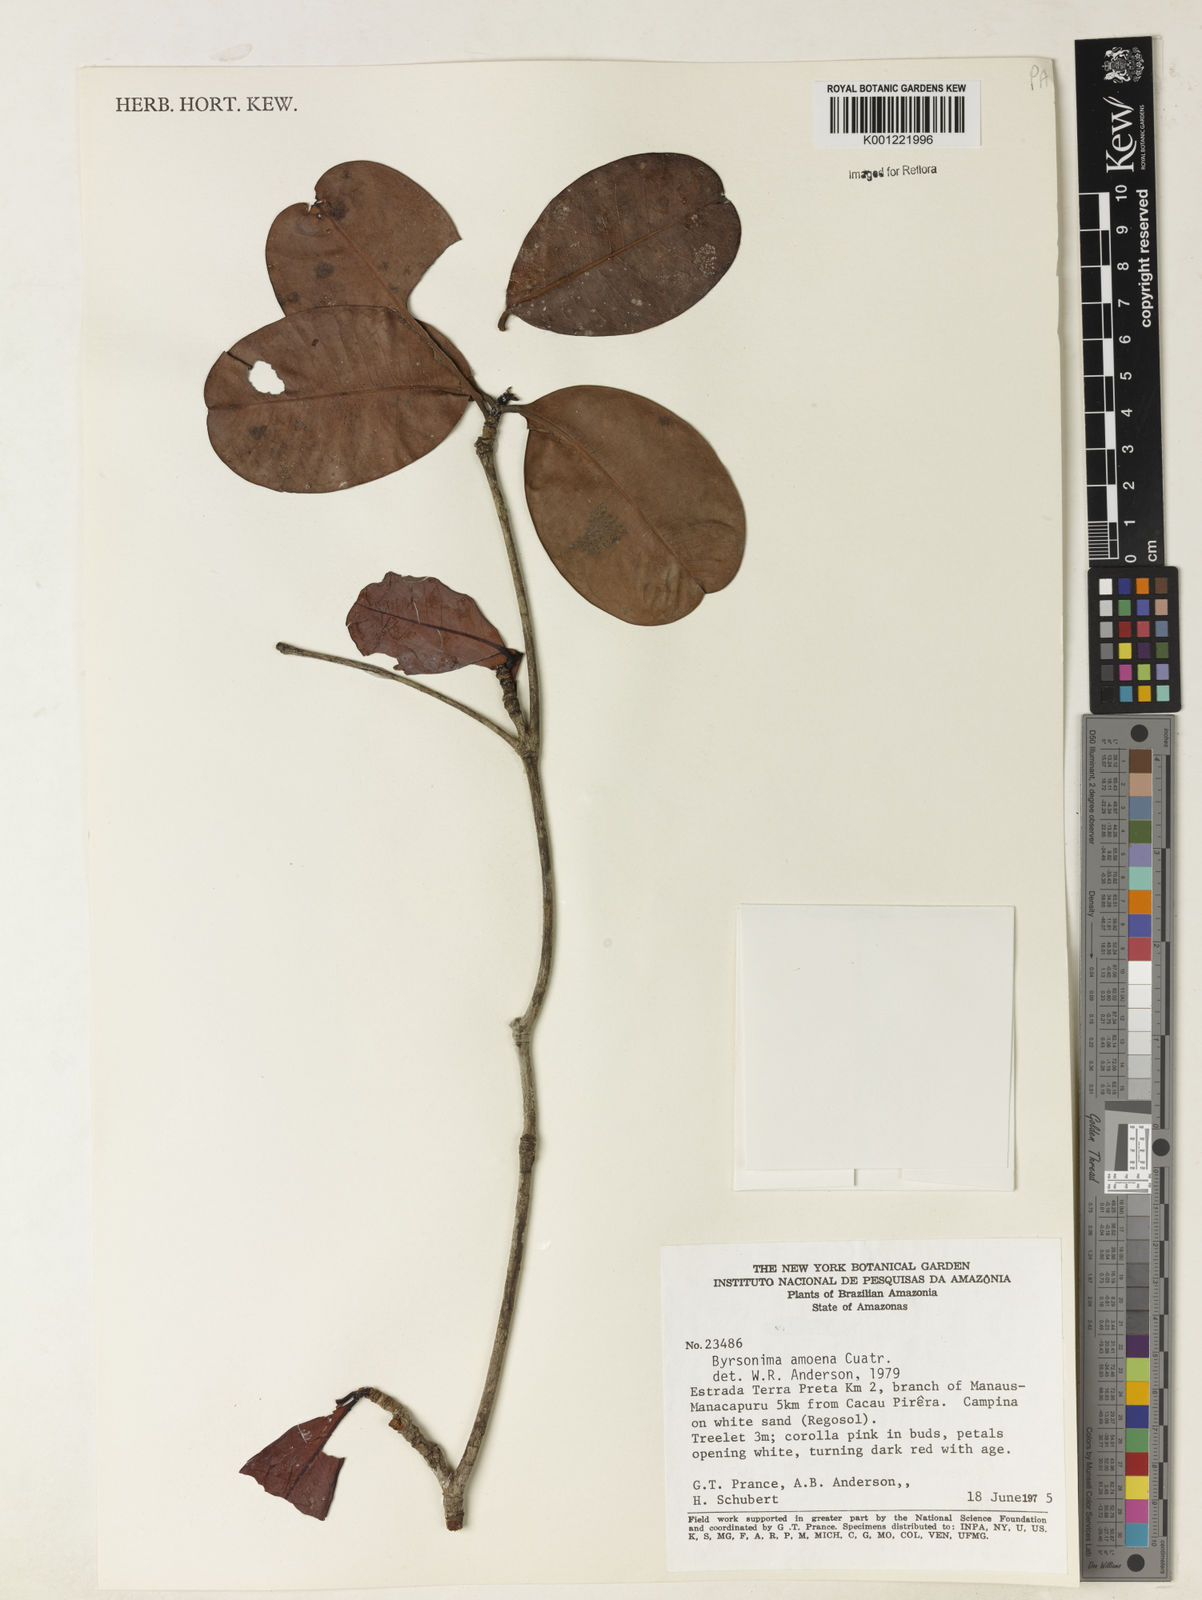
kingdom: Plantae
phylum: Tracheophyta
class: Magnoliopsida
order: Malpighiales
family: Malpighiaceae
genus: Byrsonima
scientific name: Byrsonima amoena
